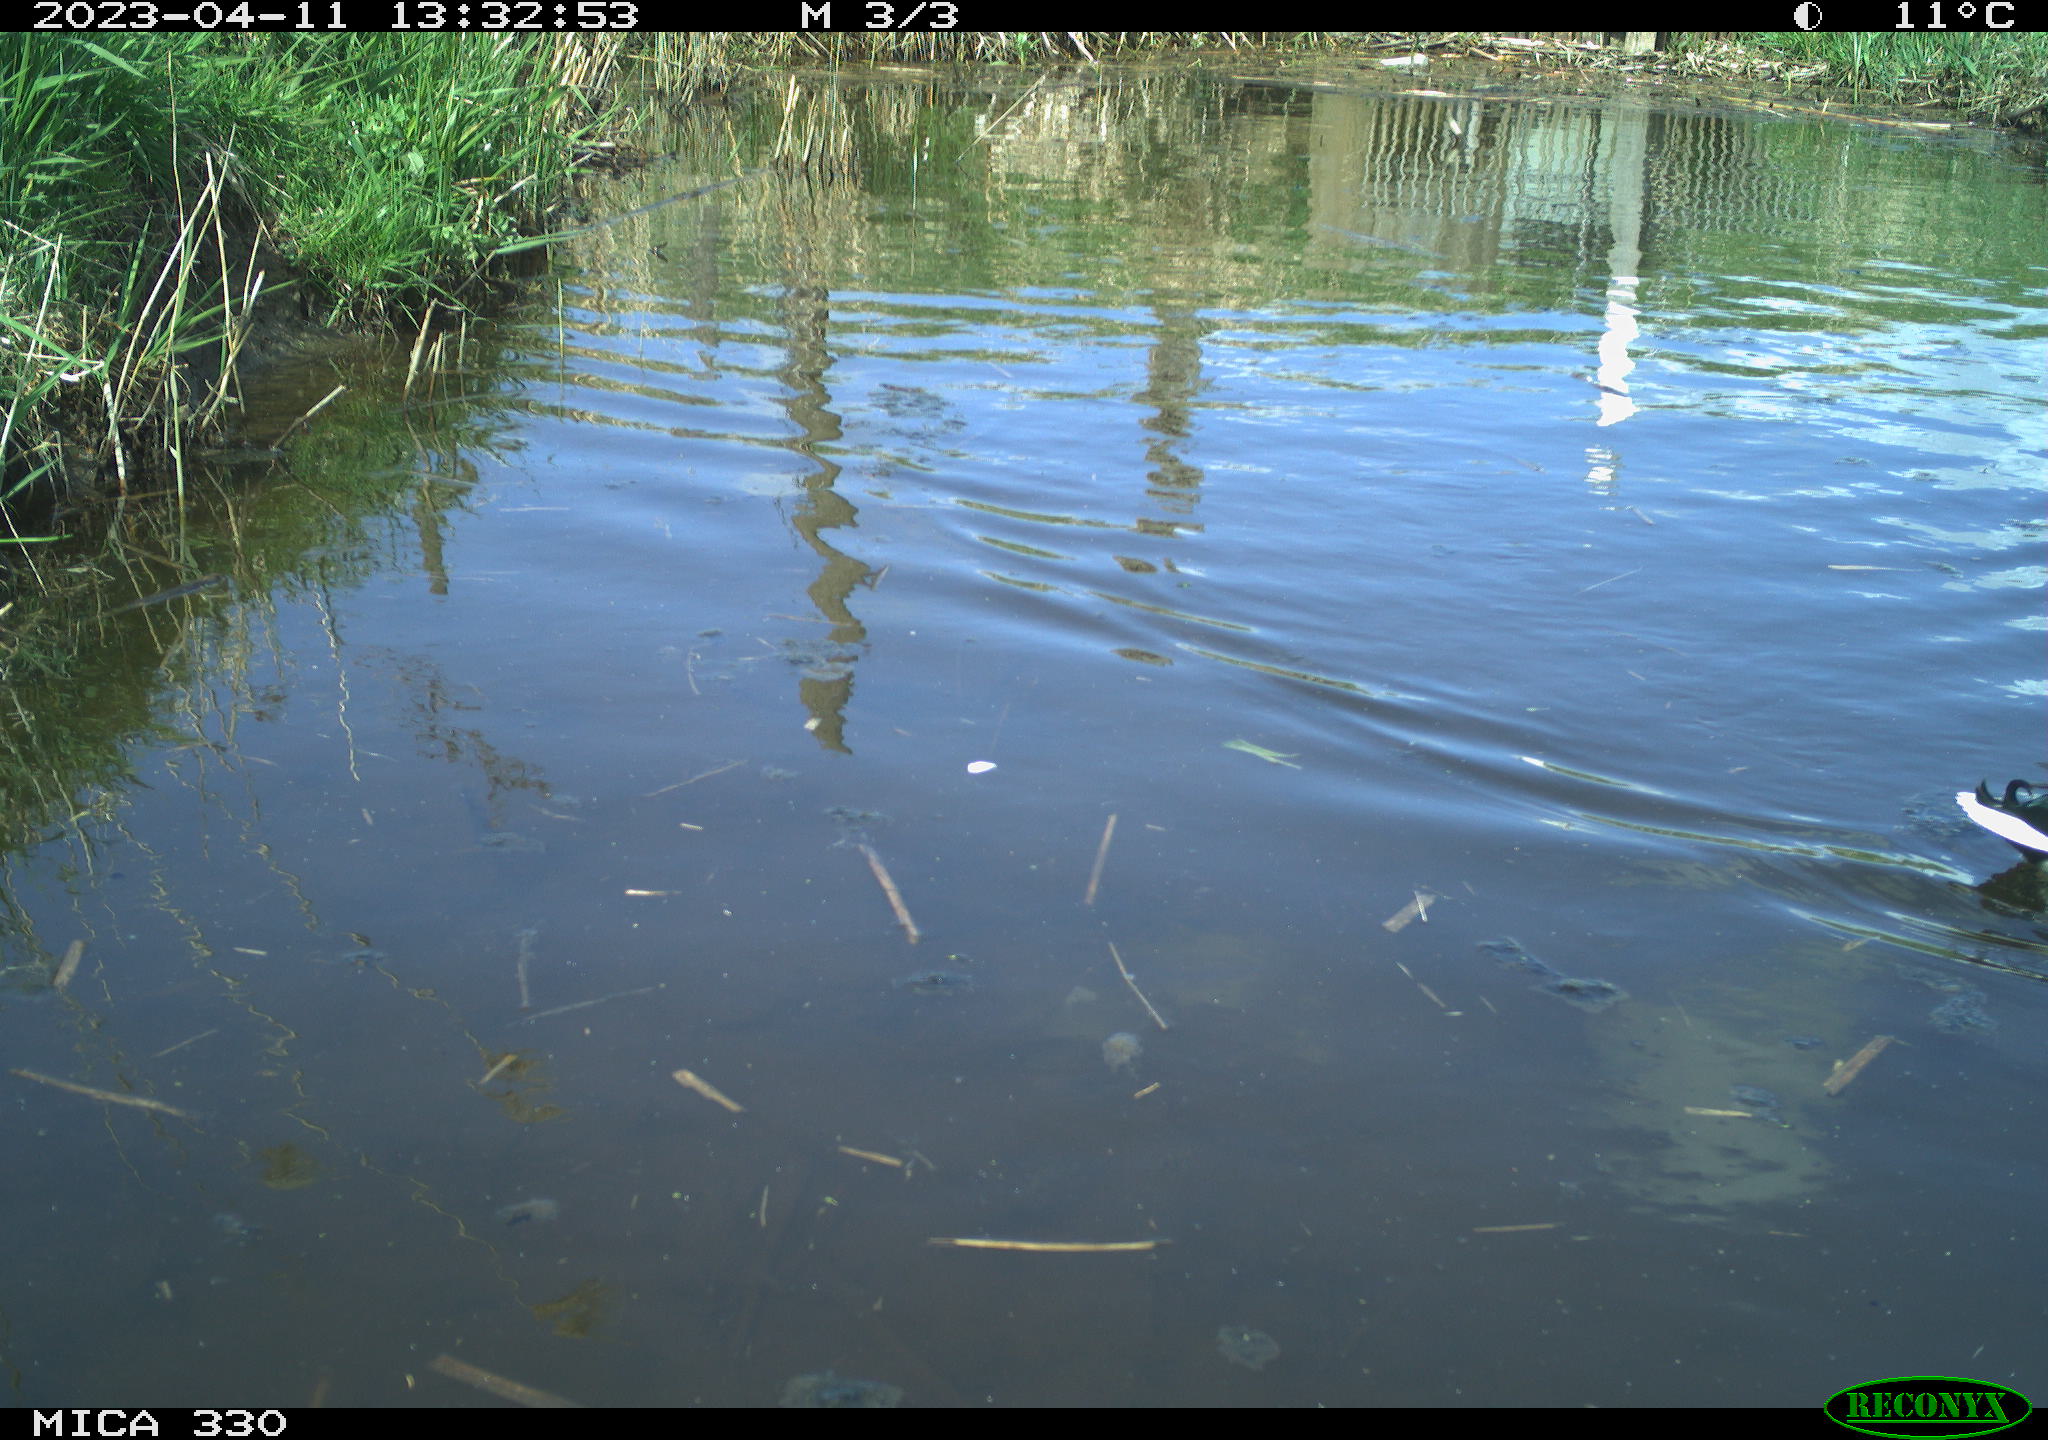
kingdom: Animalia
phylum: Chordata
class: Aves
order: Anseriformes
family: Anatidae
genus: Anas
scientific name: Anas
